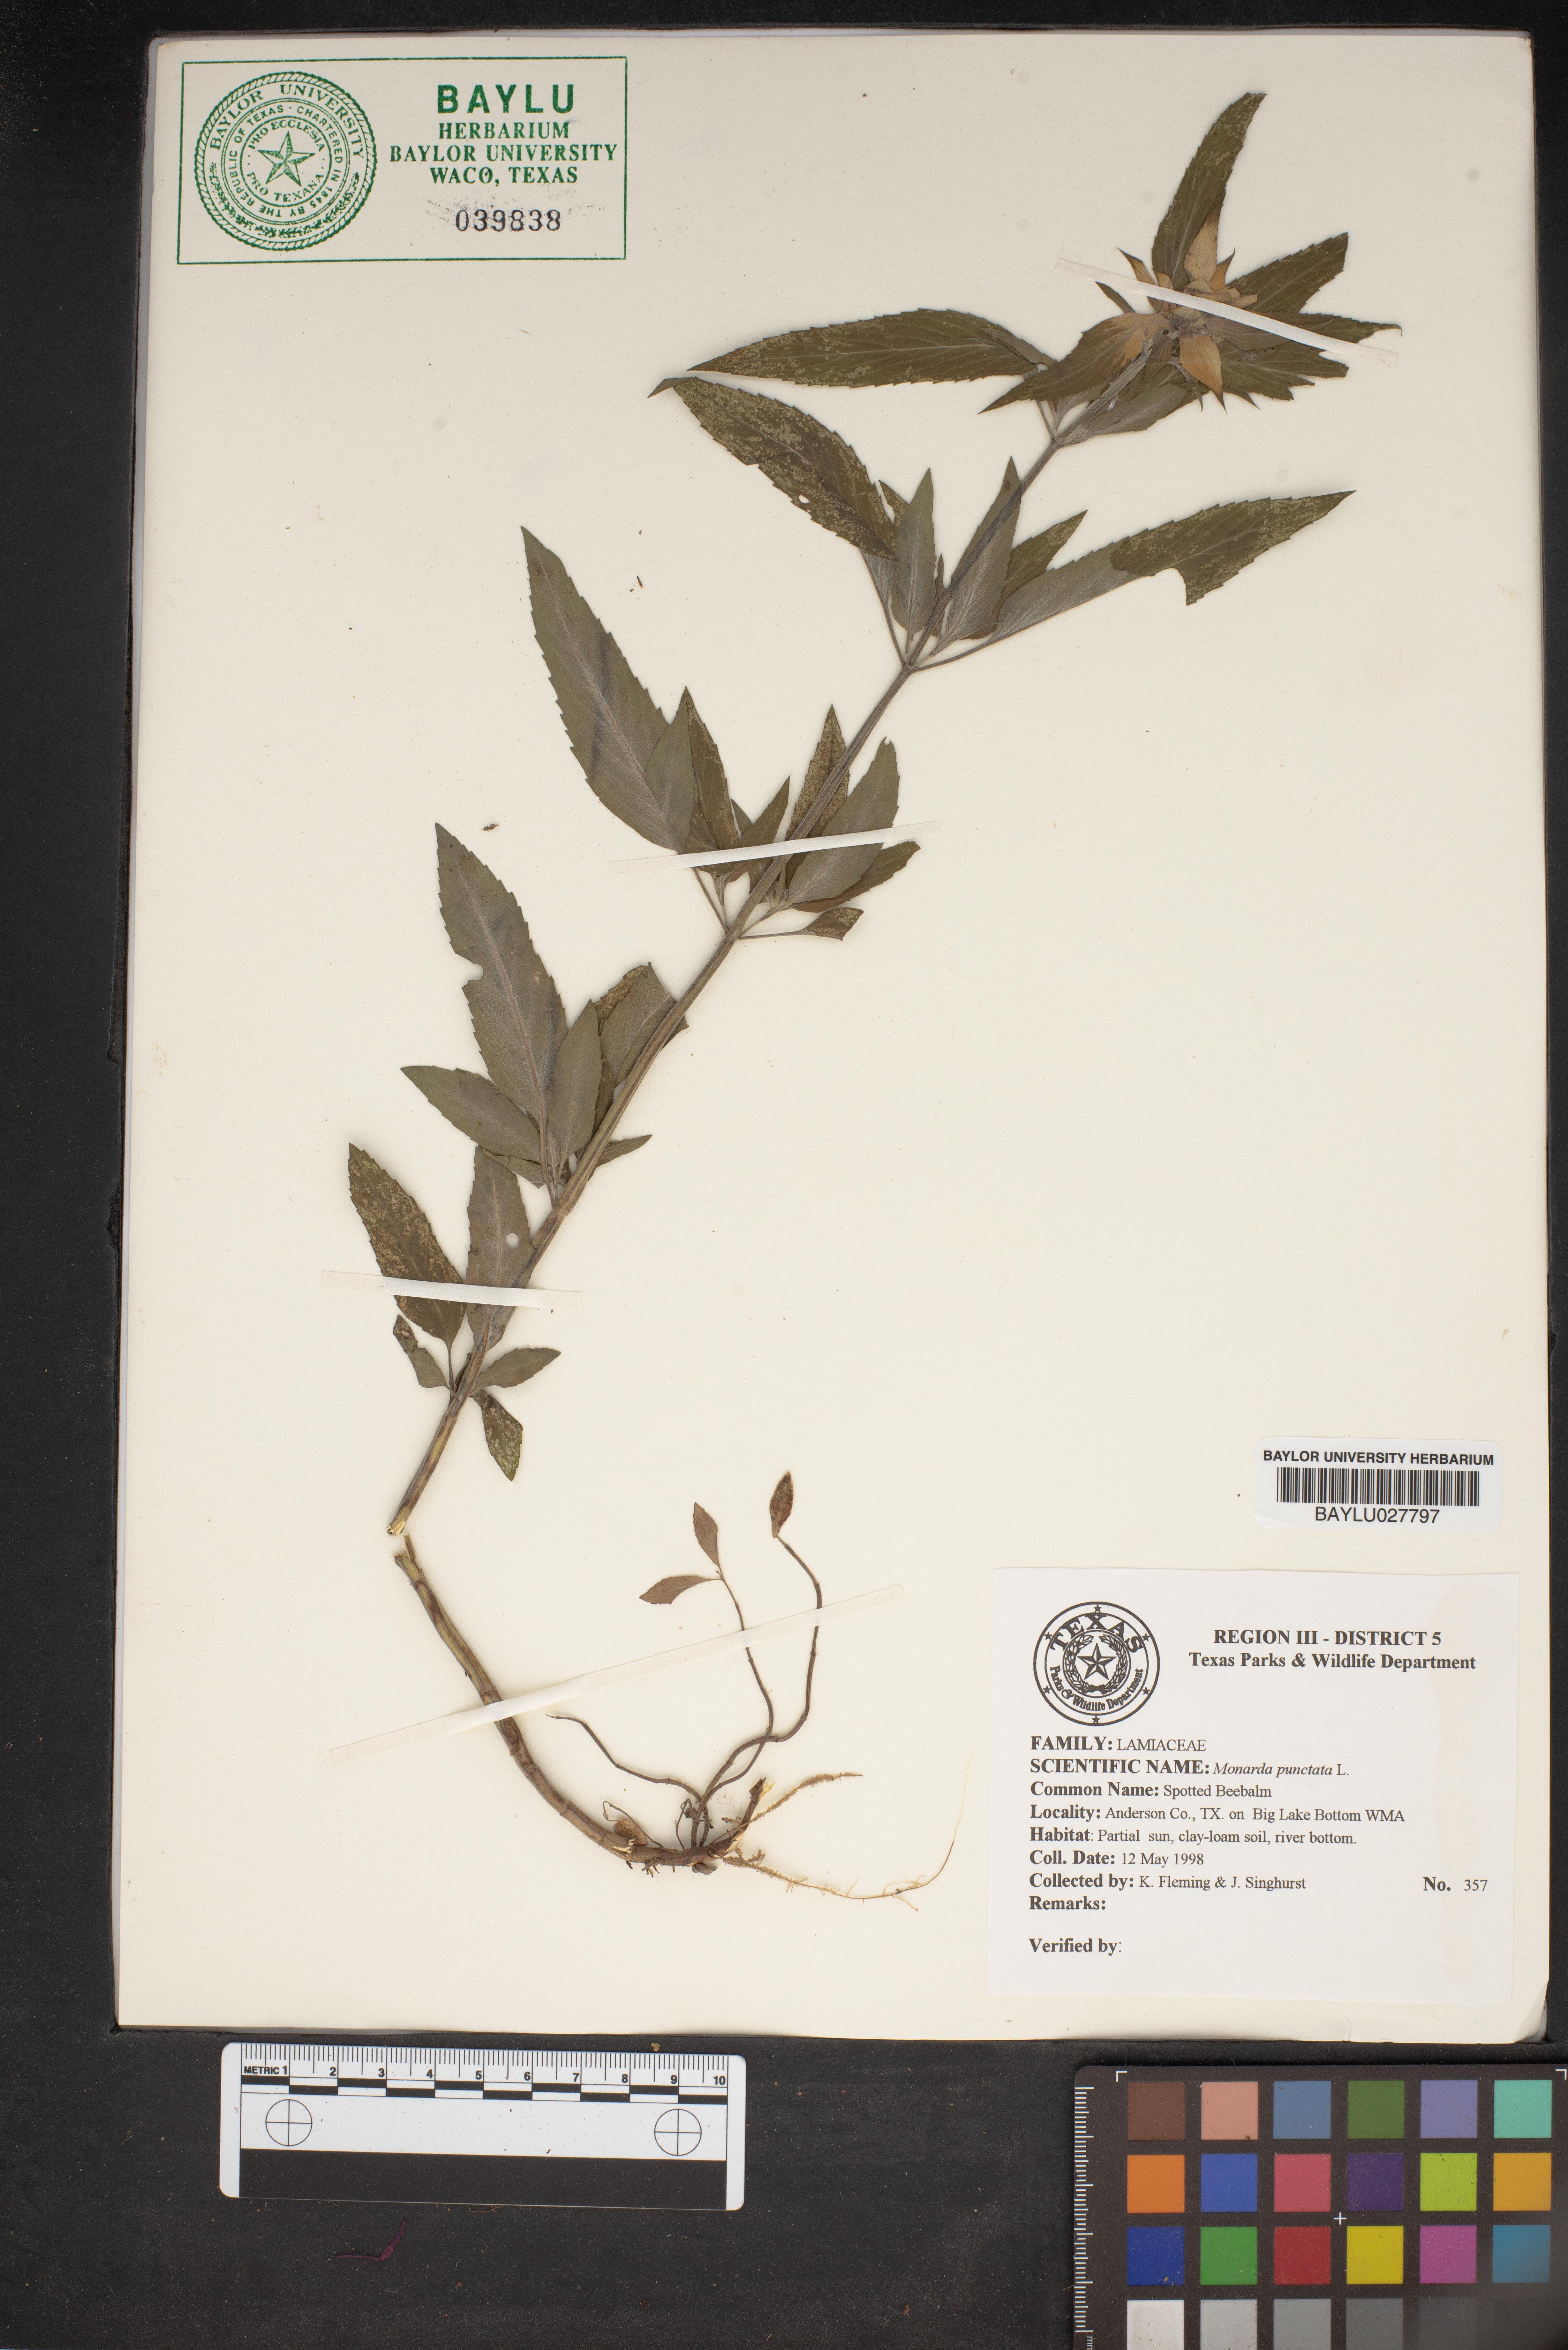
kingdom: Plantae
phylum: Tracheophyta
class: Magnoliopsida
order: Lamiales
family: Lamiaceae
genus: Monarda
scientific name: Monarda pectinata
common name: Plains beebalm
